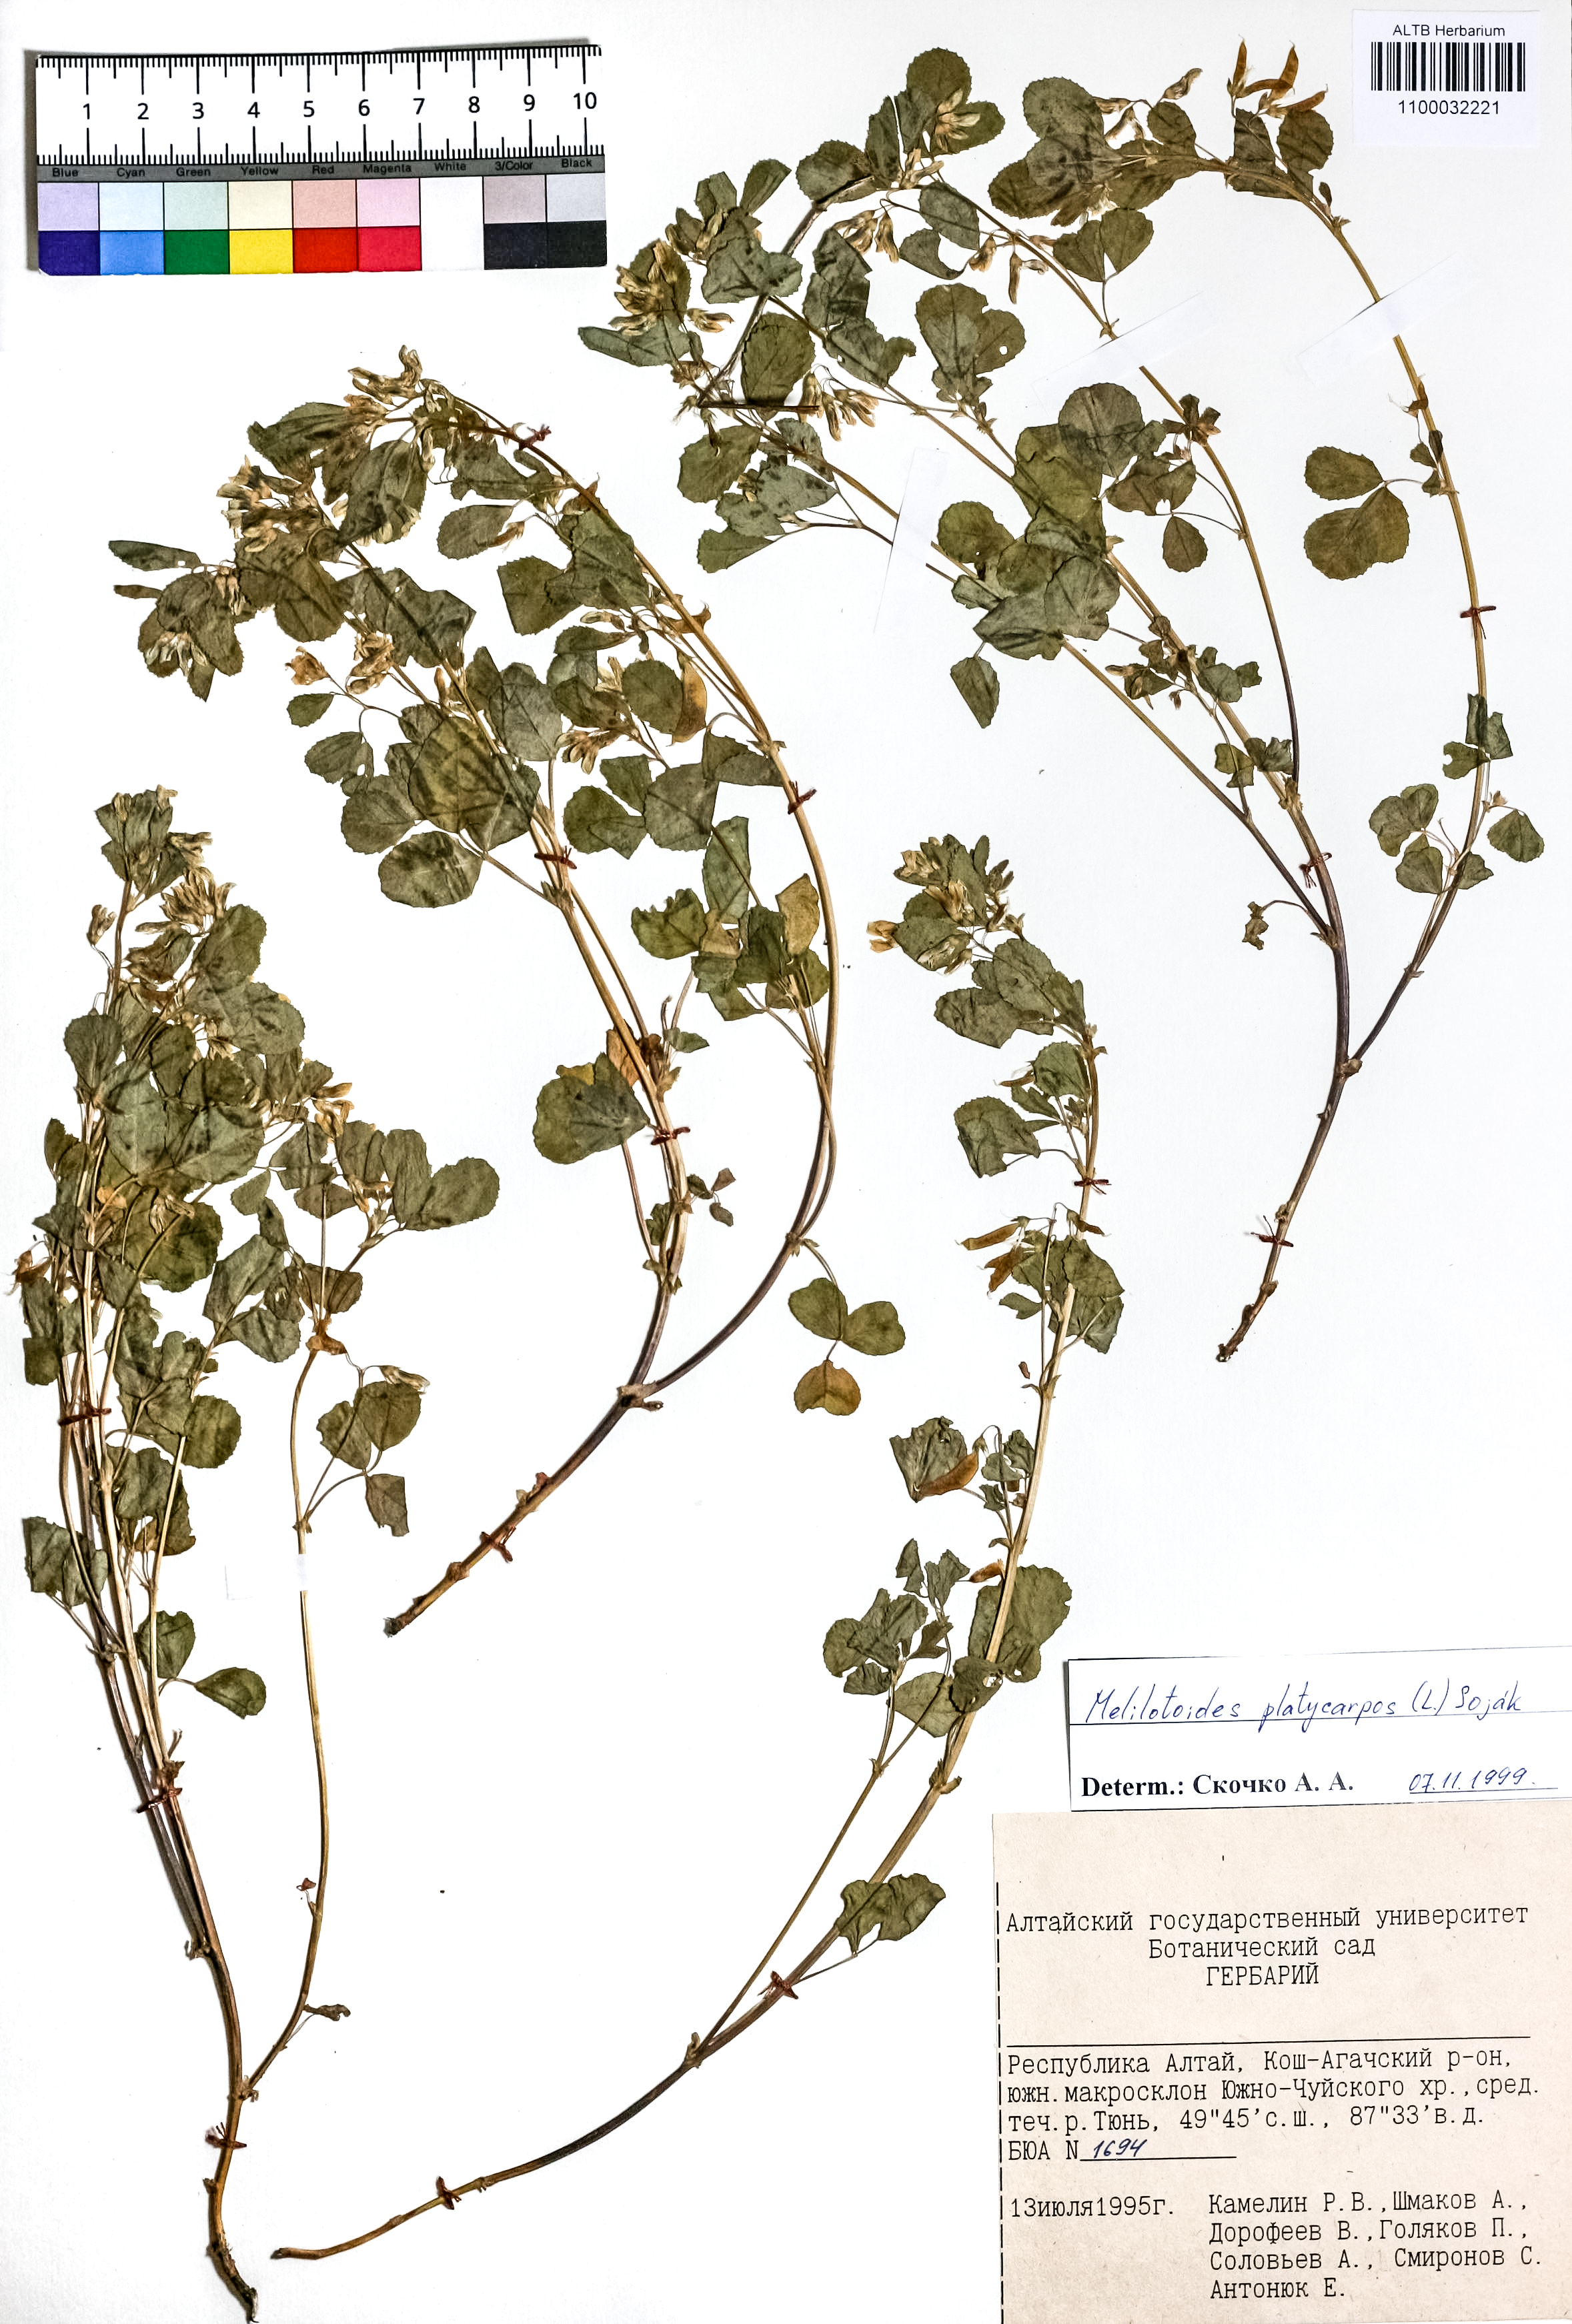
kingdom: Plantae
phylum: Tracheophyta
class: Magnoliopsida
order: Fabales
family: Fabaceae
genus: Medicago
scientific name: Medicago platycarpos
